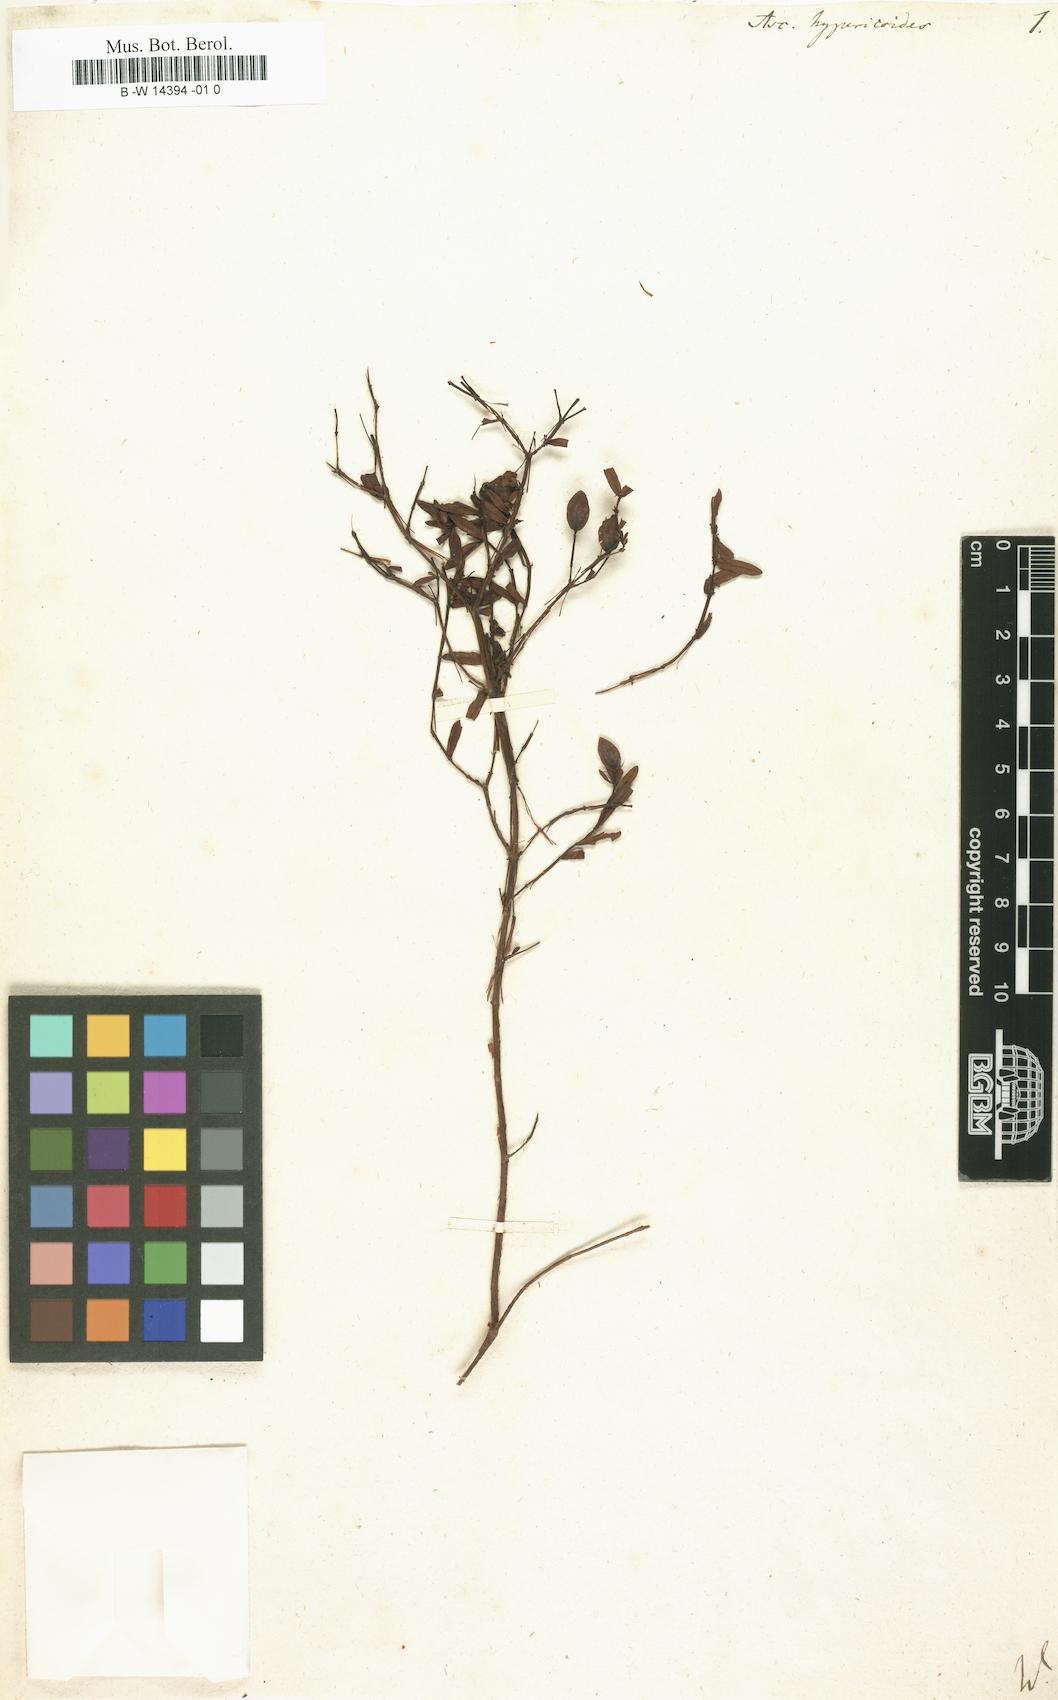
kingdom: Plantae
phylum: Tracheophyta
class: Magnoliopsida
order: Malpighiales
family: Hypericaceae
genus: Hypericum
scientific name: Hypericum hypericoides
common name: St. andrew's cross
